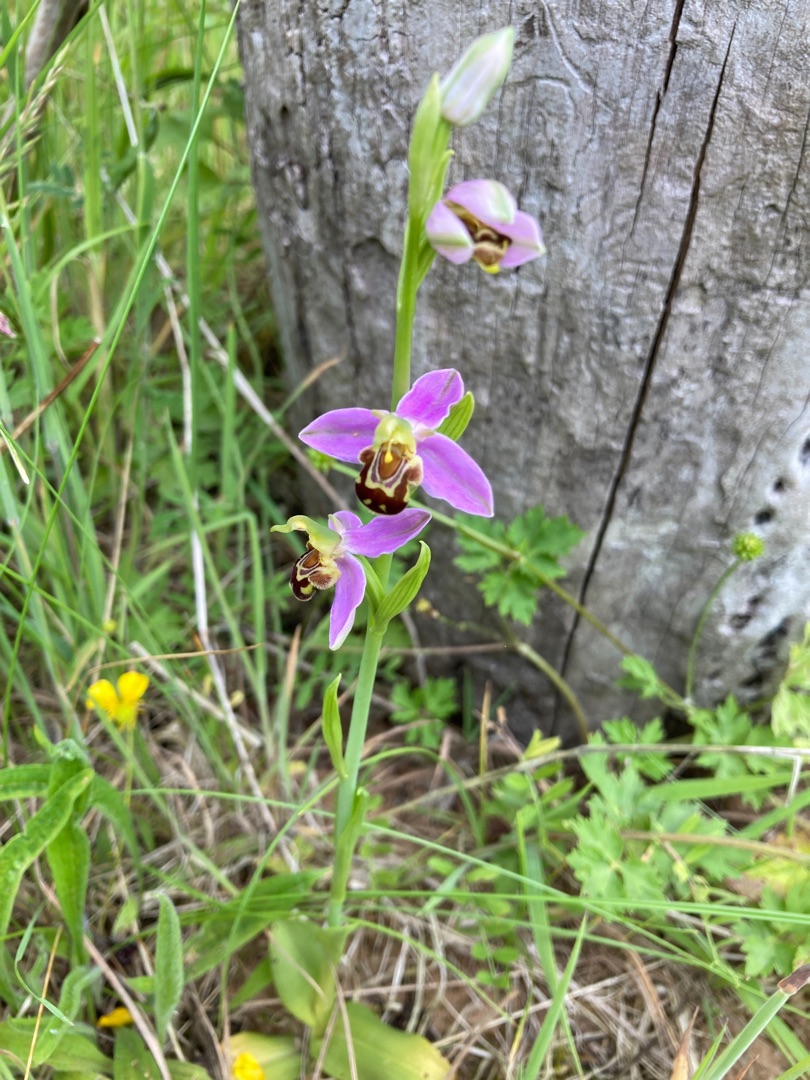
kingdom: Plantae
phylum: Tracheophyta
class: Liliopsida
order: Asparagales
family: Orchidaceae
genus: Ophrys
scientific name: Ophrys apifera
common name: Biblomst
